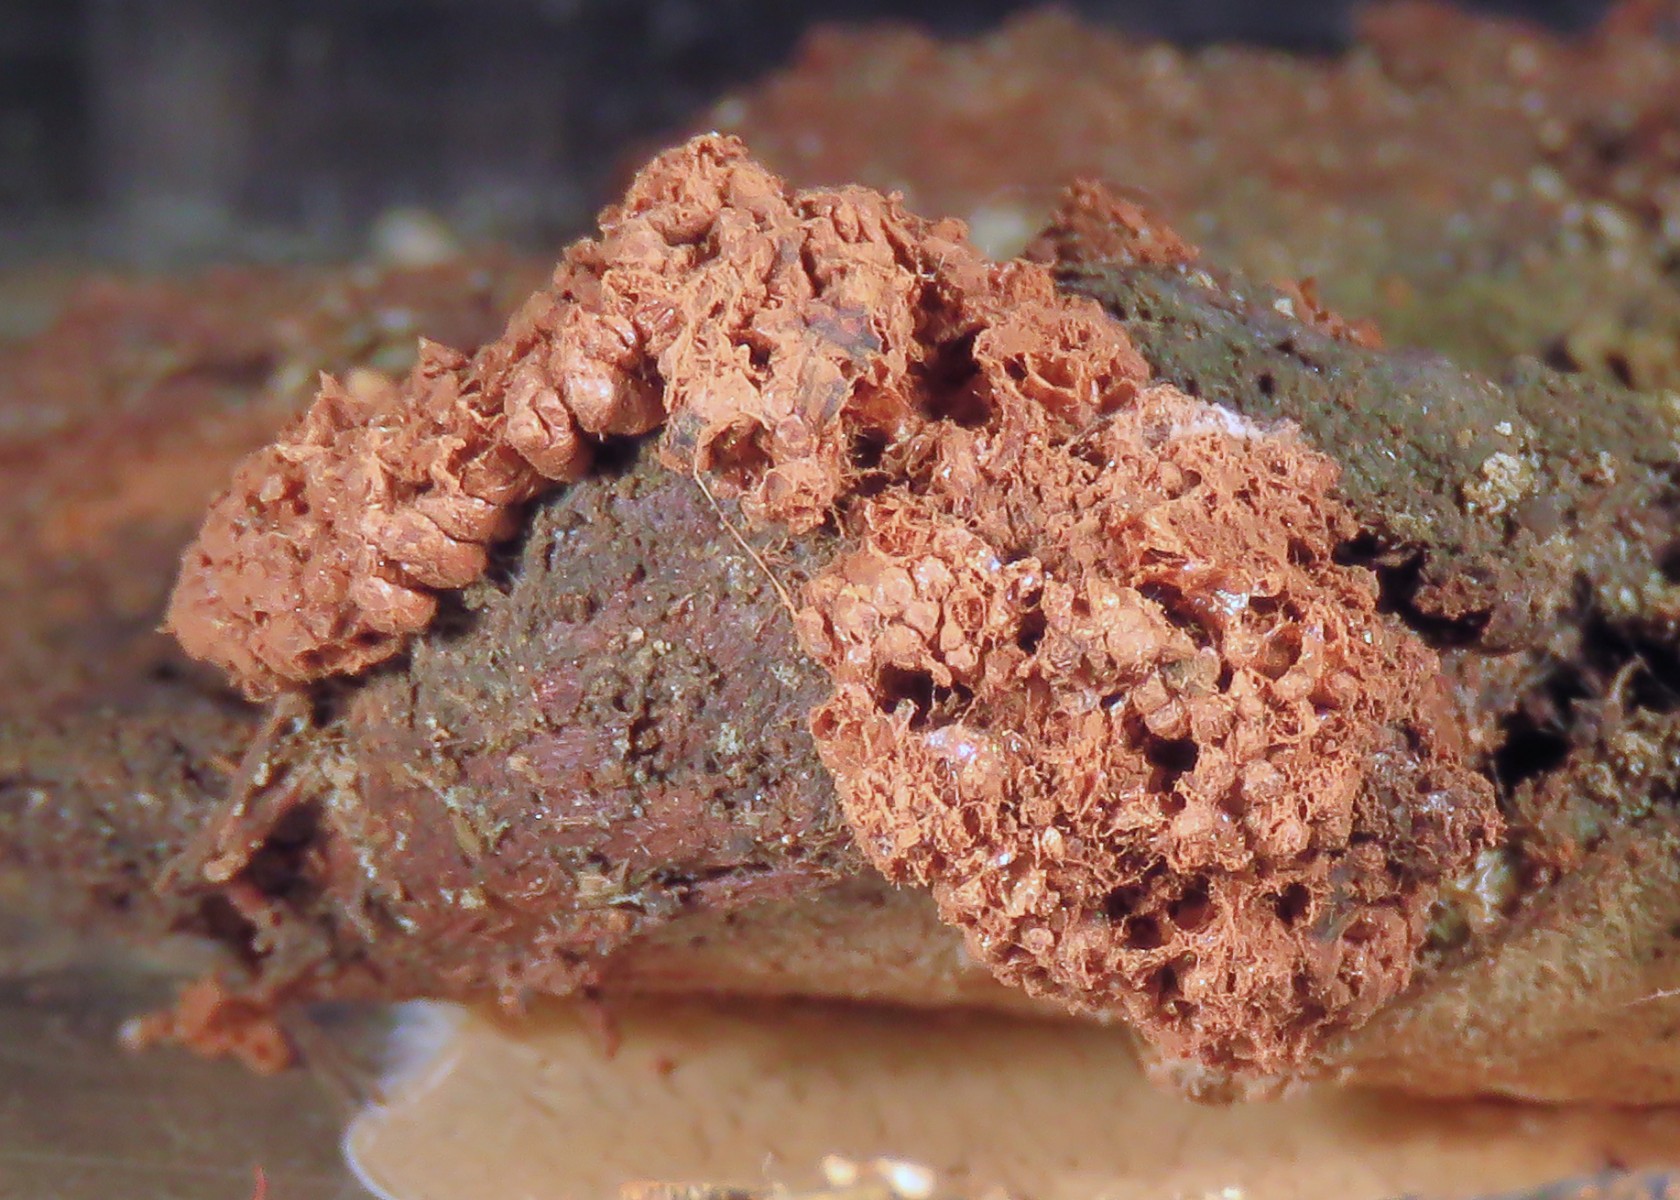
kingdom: Protozoa
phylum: Mycetozoa
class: Myxomycetes
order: Cribrariales
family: Tubiferaceae
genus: Tubifera
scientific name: Tubifera ferruginosa
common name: kanel-støvrør
